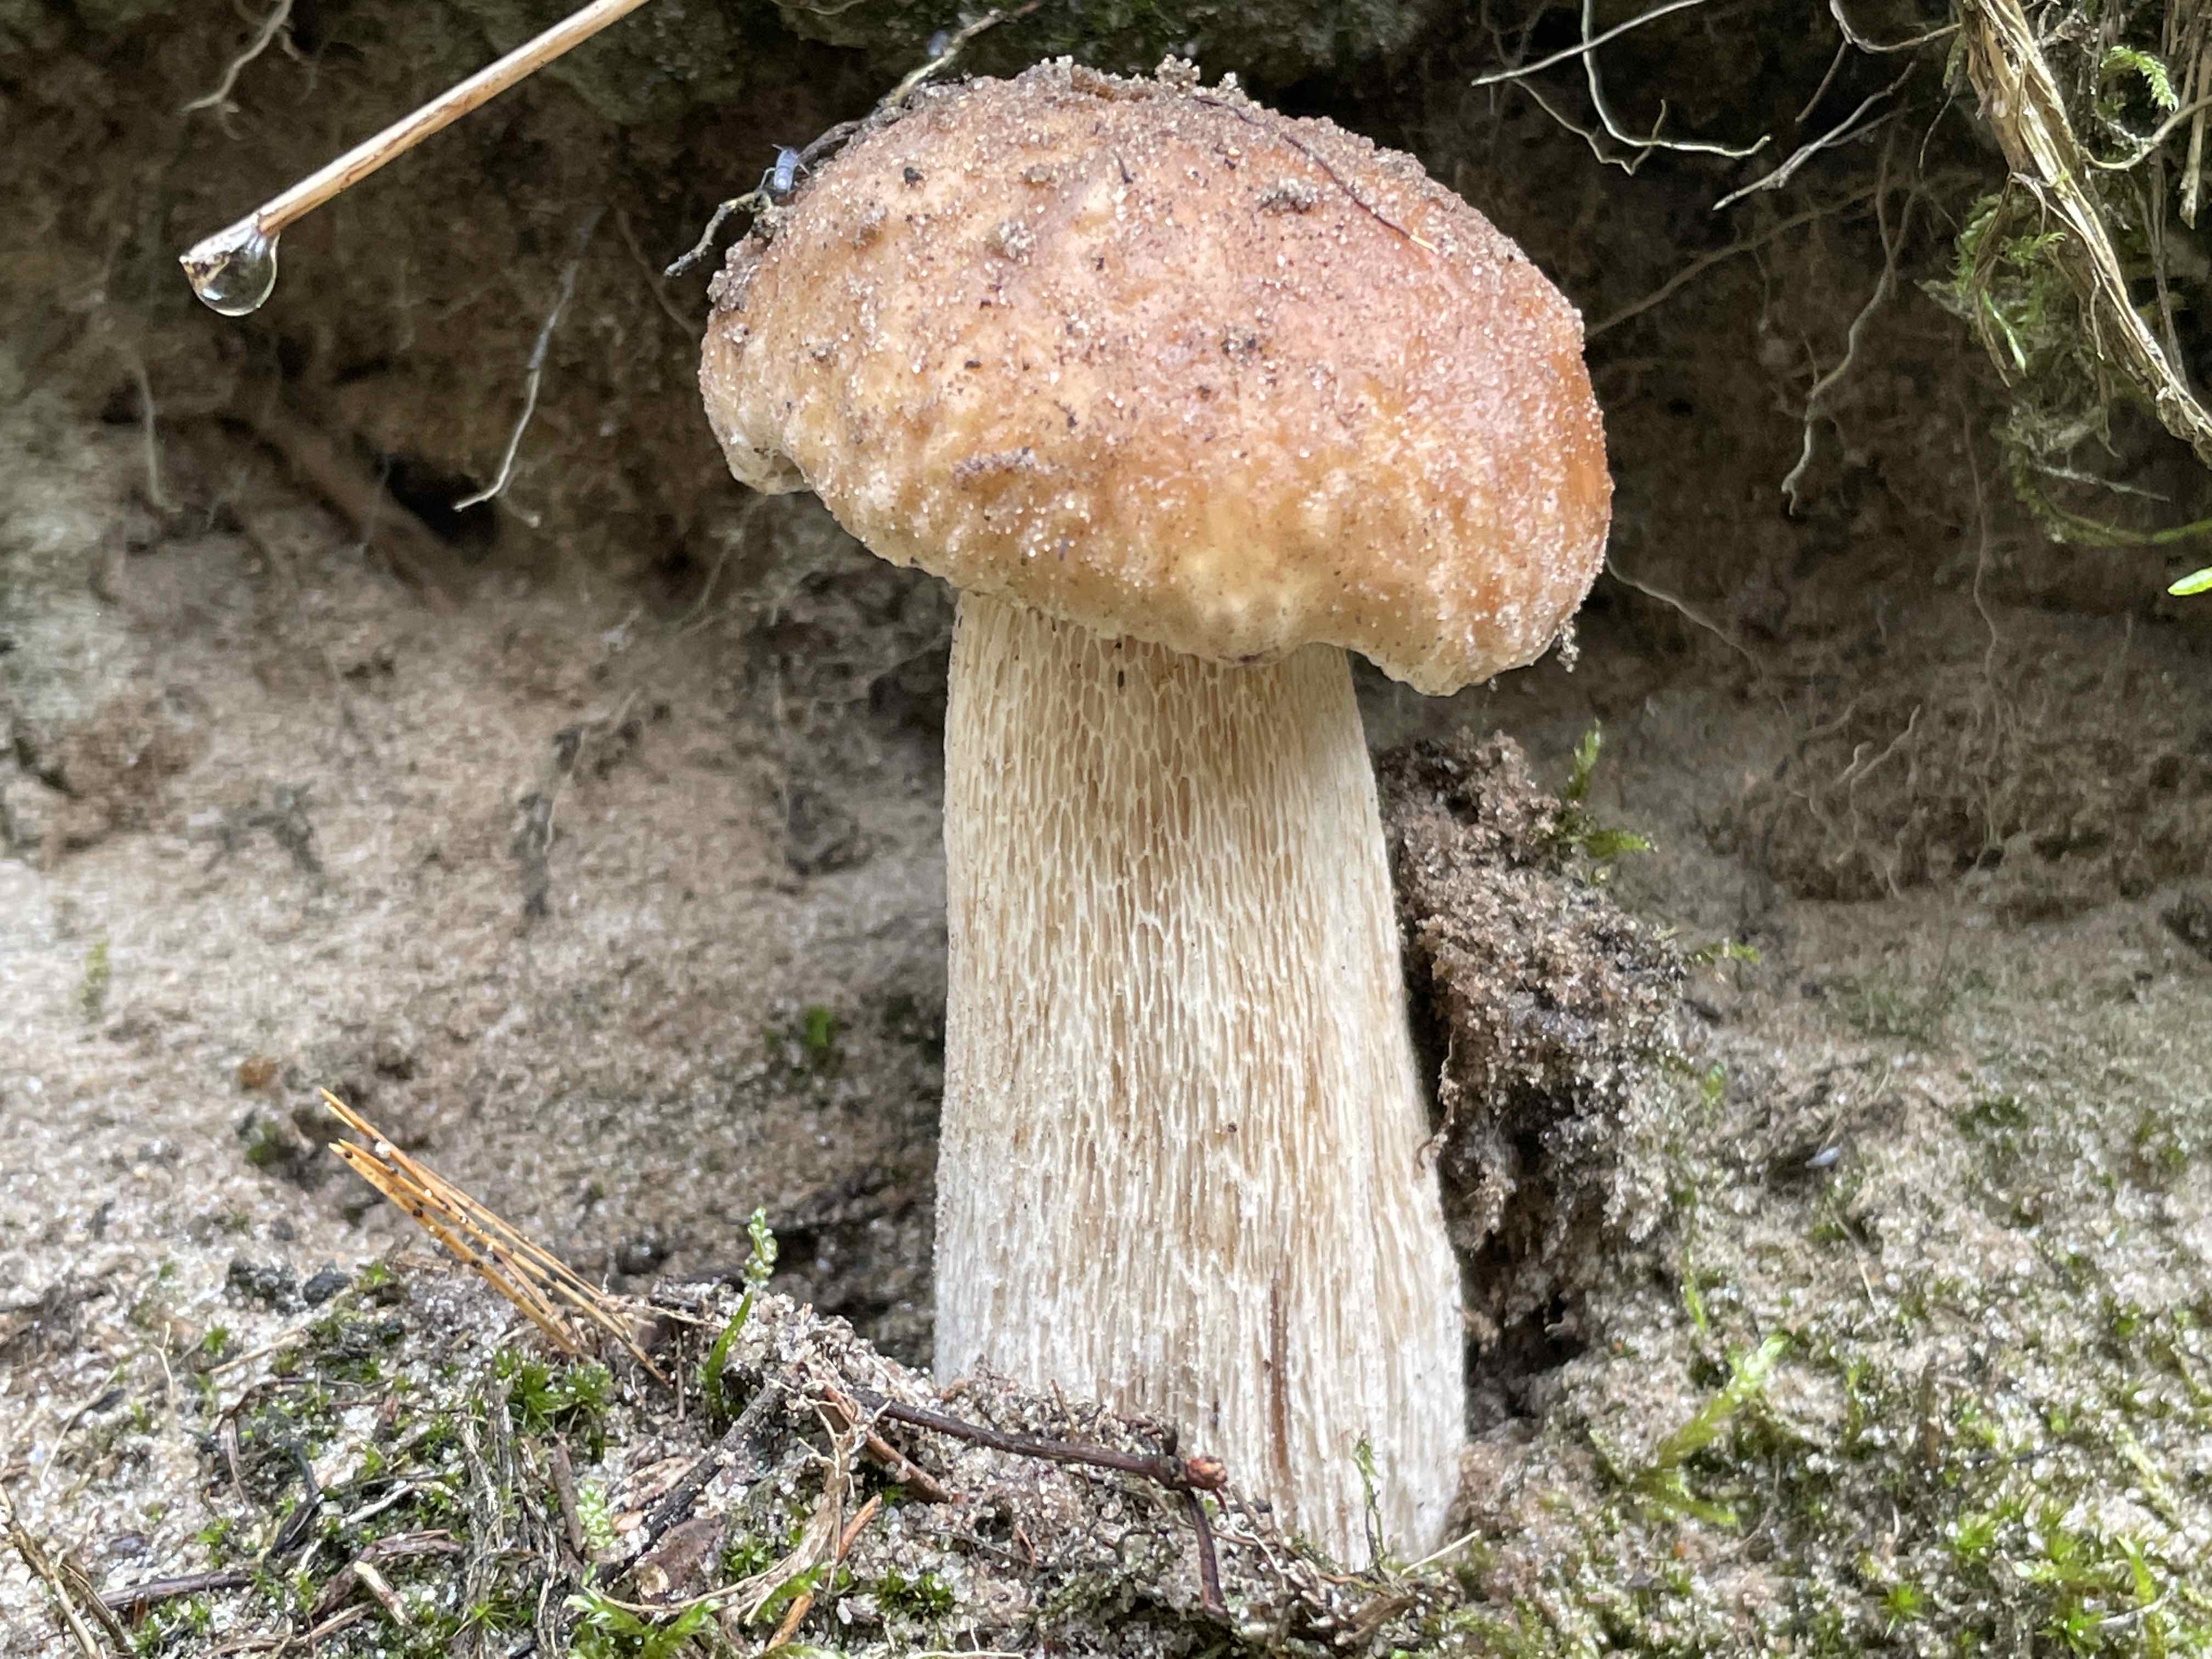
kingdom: Fungi
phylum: Basidiomycota
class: Agaricomycetes
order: Boletales
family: Boletaceae
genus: Boletus
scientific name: Boletus edulis
